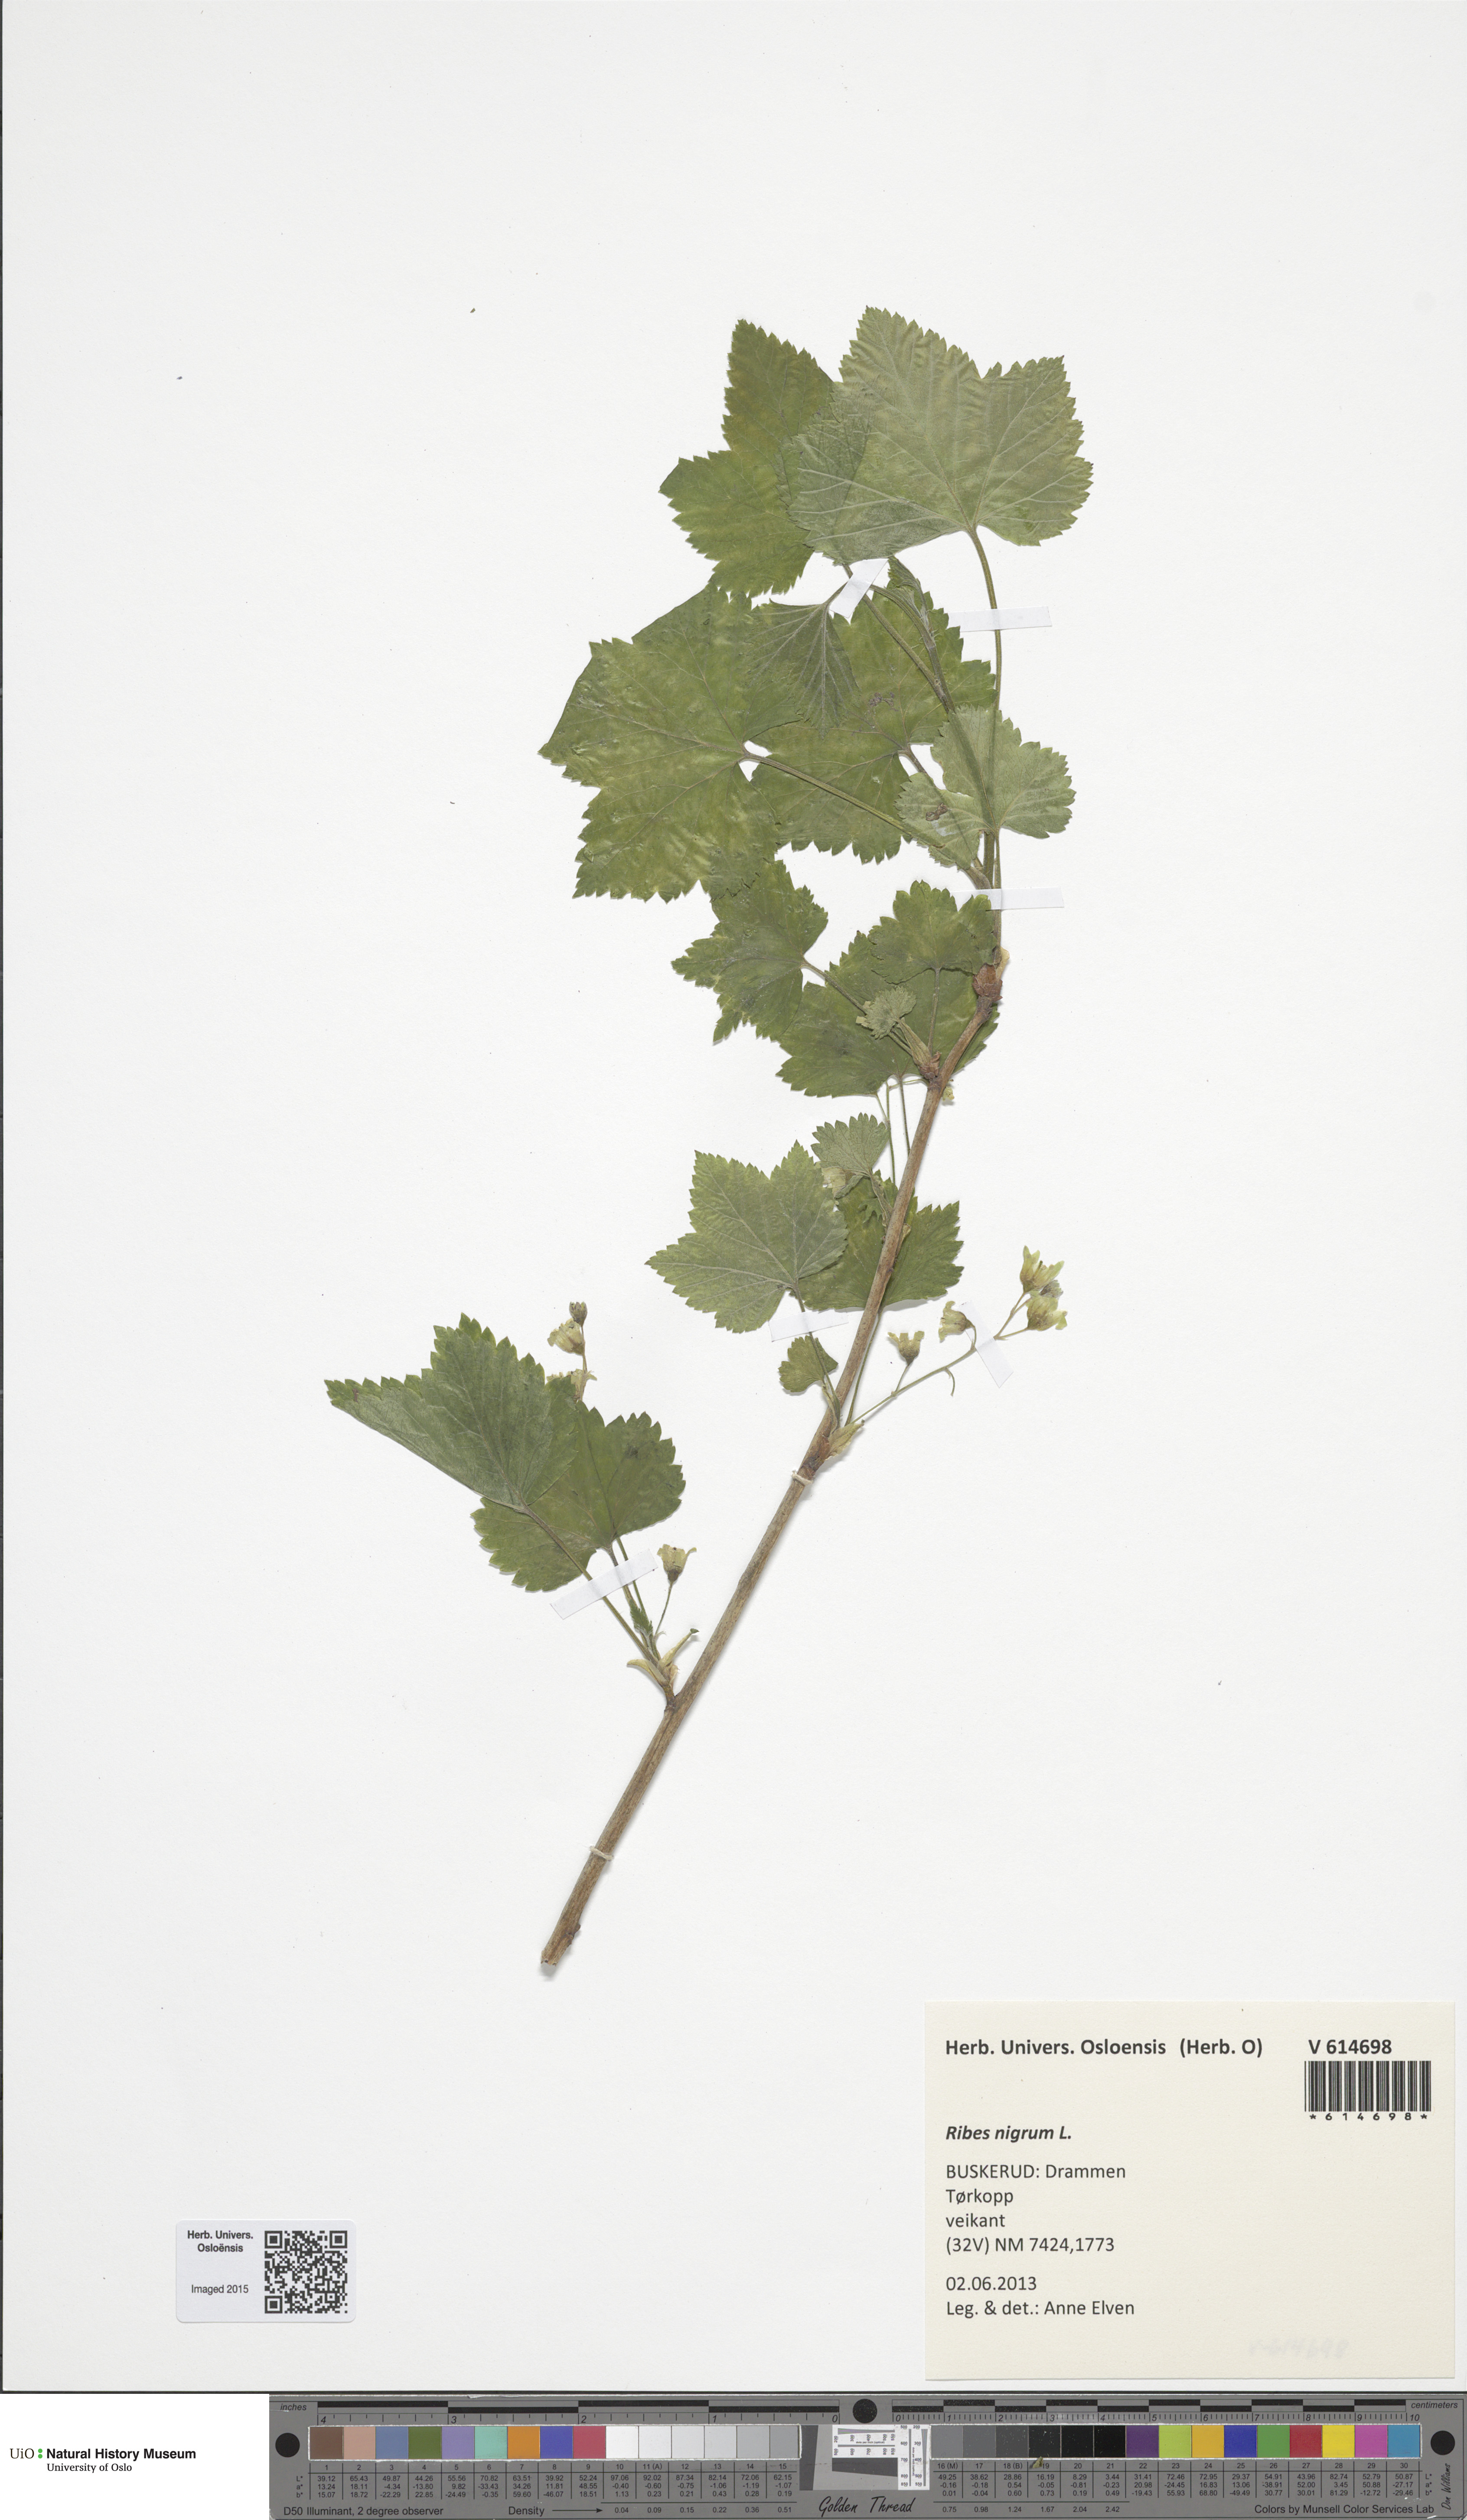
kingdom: Plantae
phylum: Tracheophyta
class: Magnoliopsida
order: Saxifragales
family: Grossulariaceae
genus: Ribes
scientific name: Ribes nigrum
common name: Black currant
